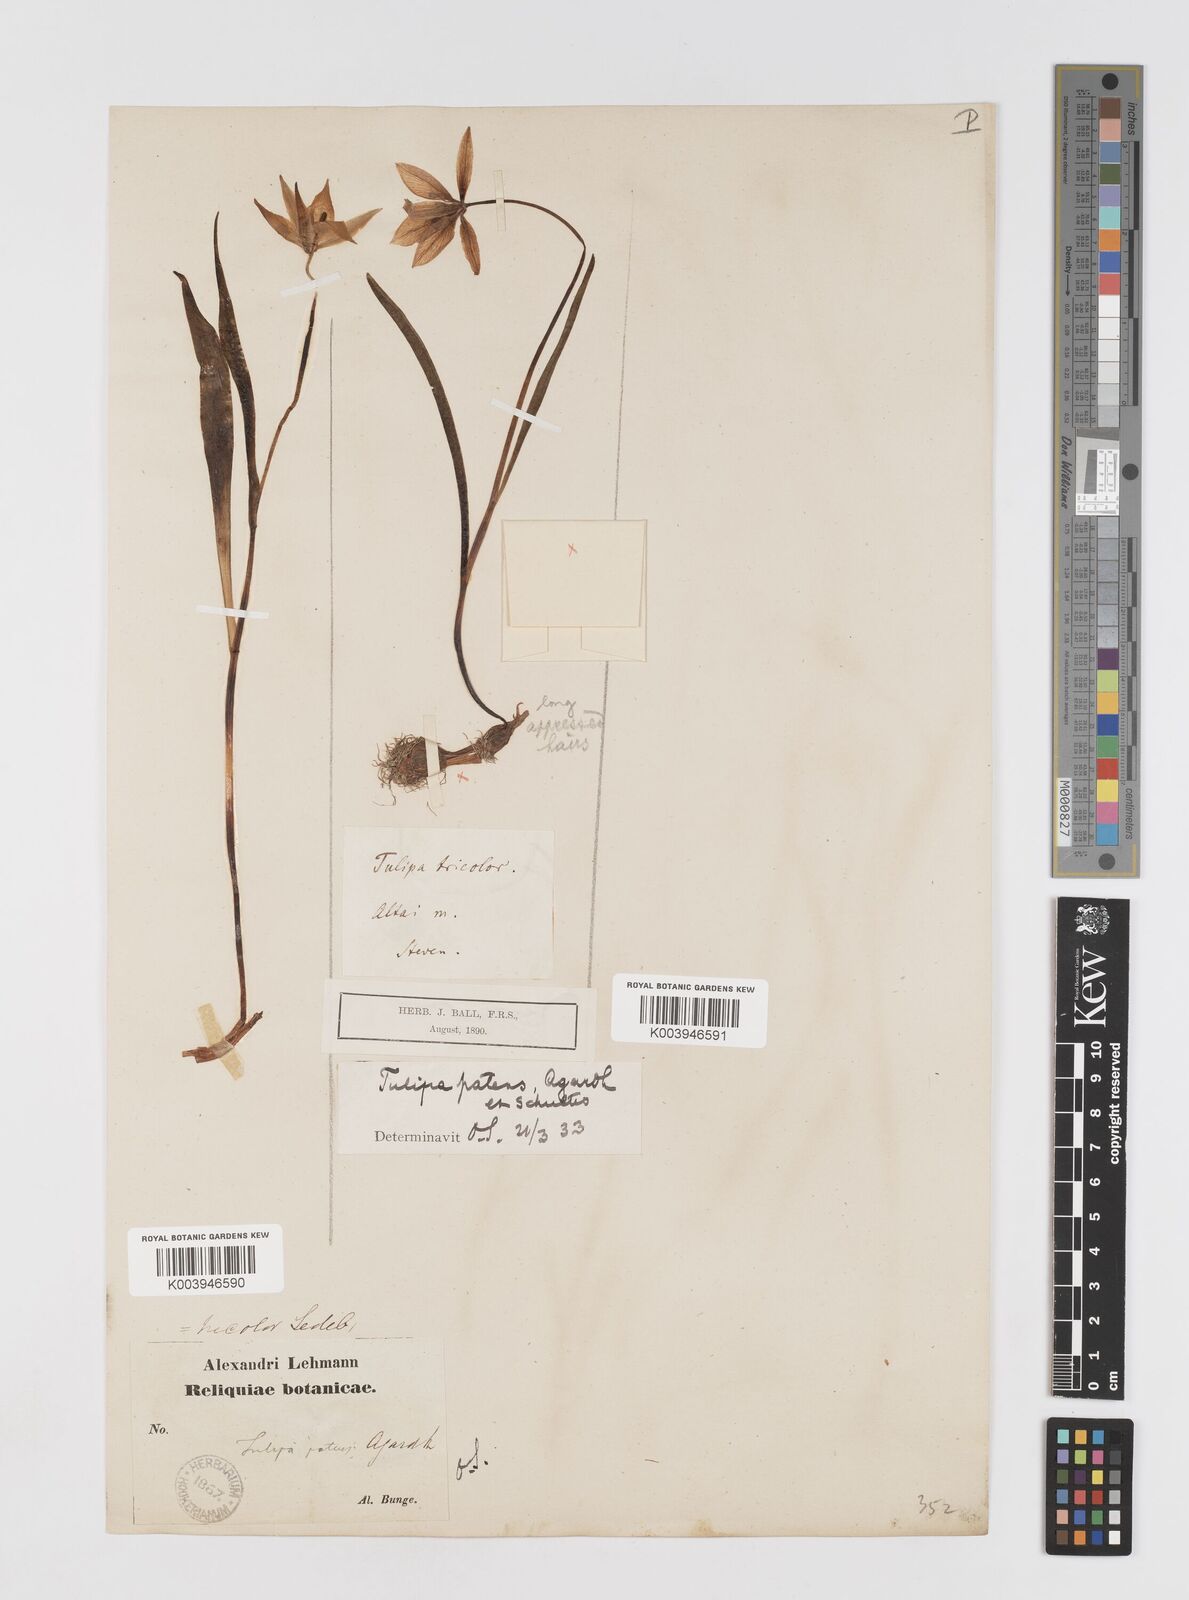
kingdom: Plantae
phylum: Tracheophyta
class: Liliopsida
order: Liliales
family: Liliaceae
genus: Tulipa
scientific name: Tulipa sylvestris
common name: Wild tulip
